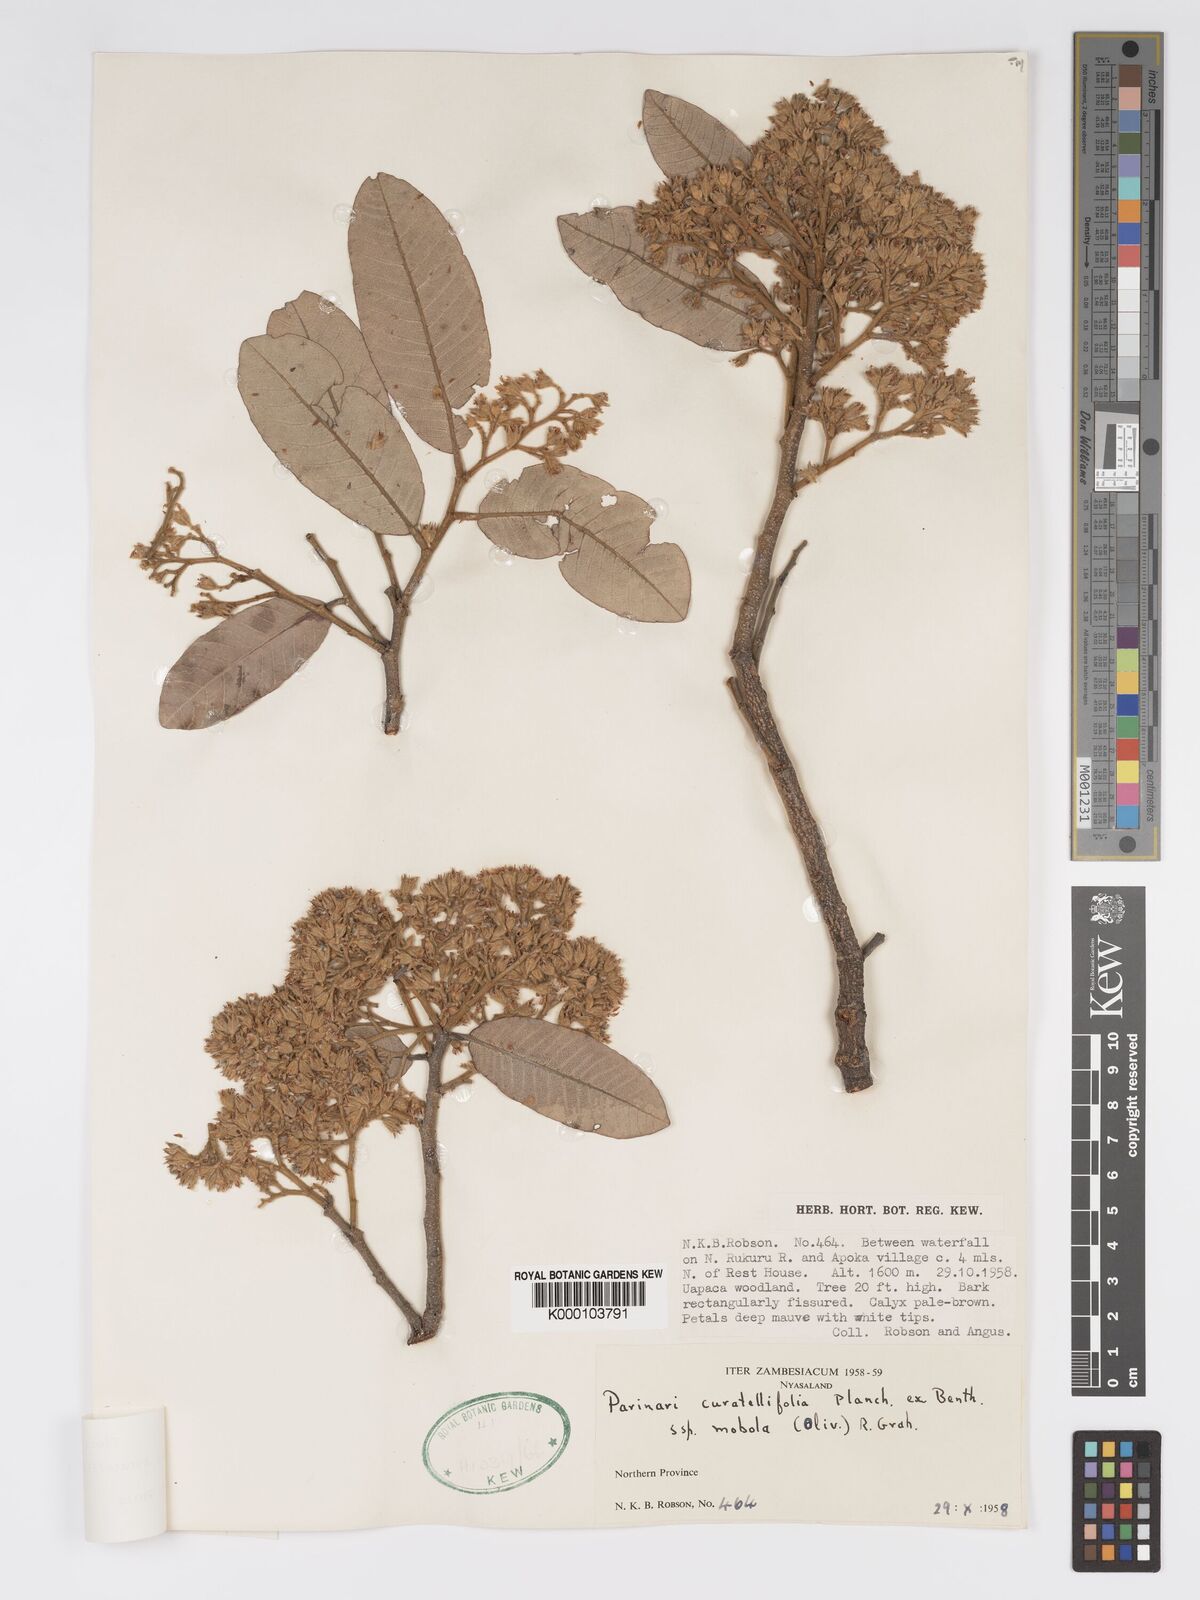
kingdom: Plantae
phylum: Tracheophyta
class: Magnoliopsida
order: Malpighiales
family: Chrysobalanaceae
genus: Parinari
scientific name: Parinari curatellifolia
